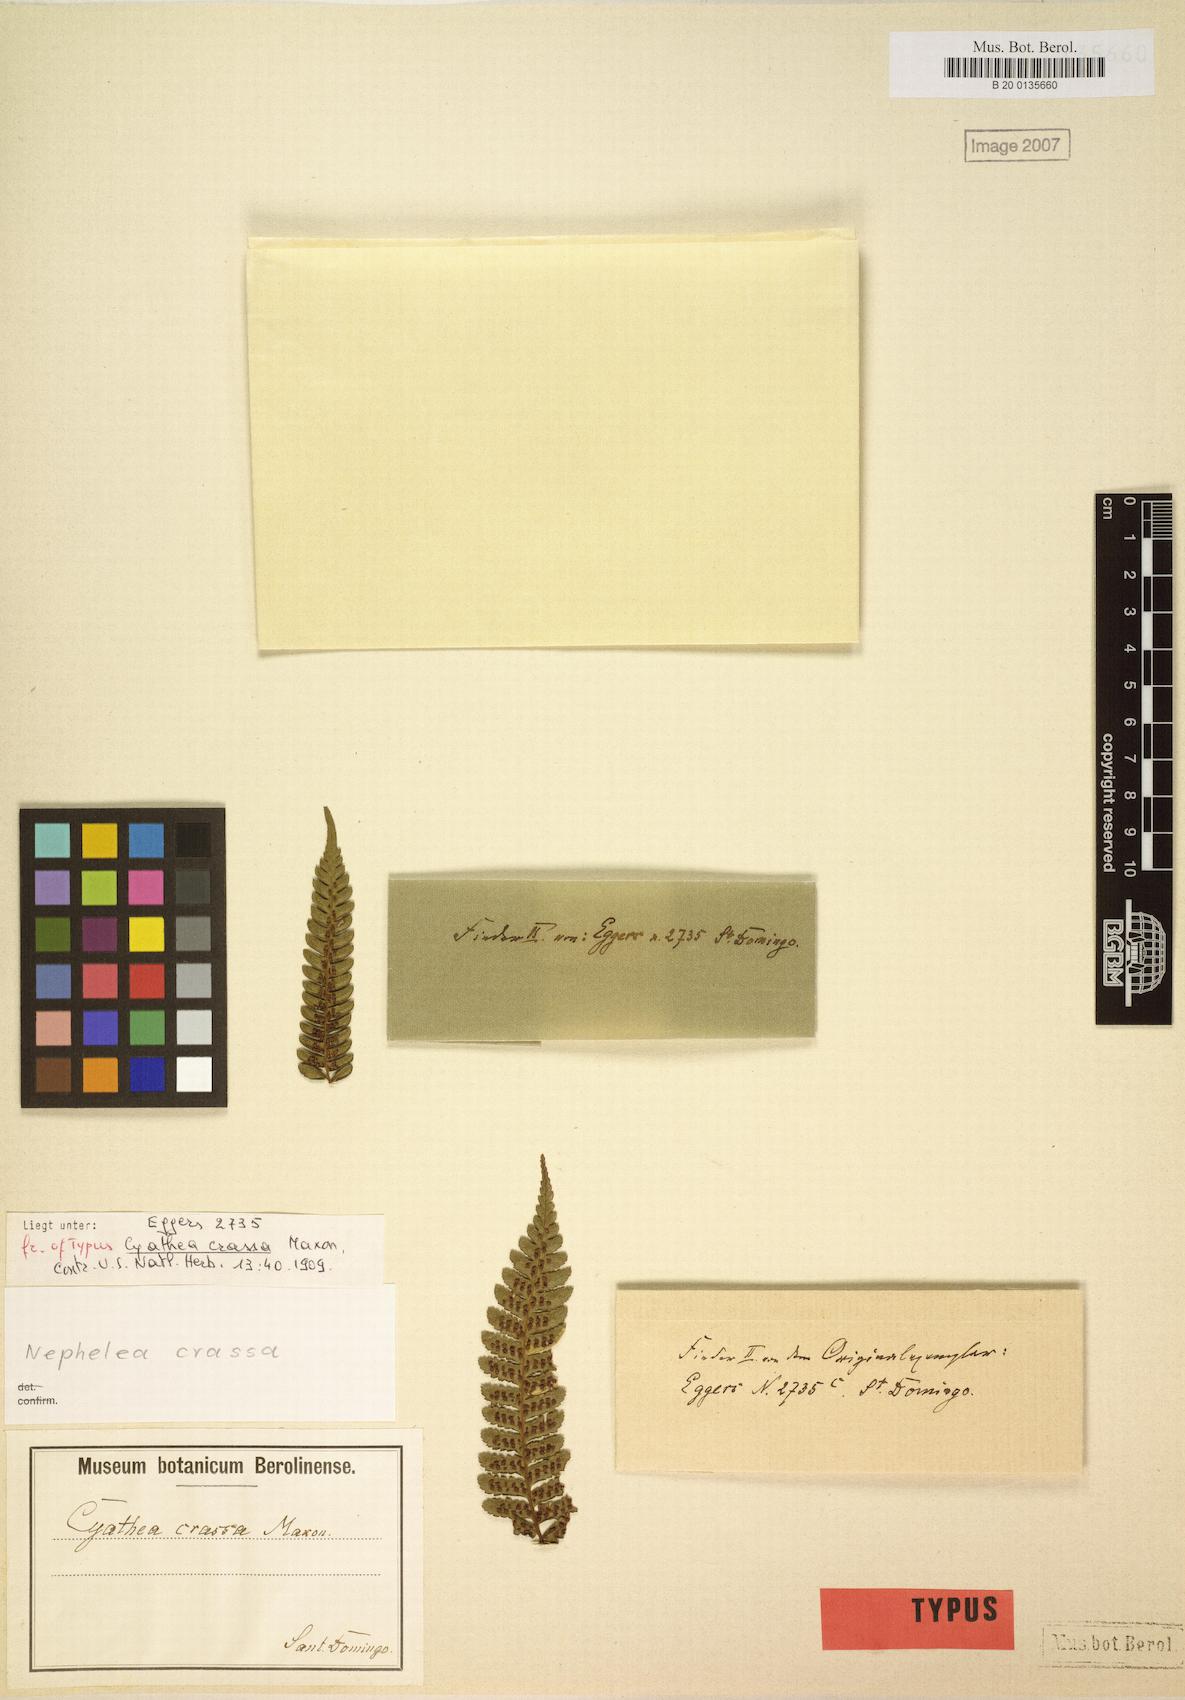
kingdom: Plantae
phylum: Tracheophyta
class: Polypodiopsida
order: Cyatheales
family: Cyatheaceae
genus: Alsophila
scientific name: Alsophila jimeneziana
